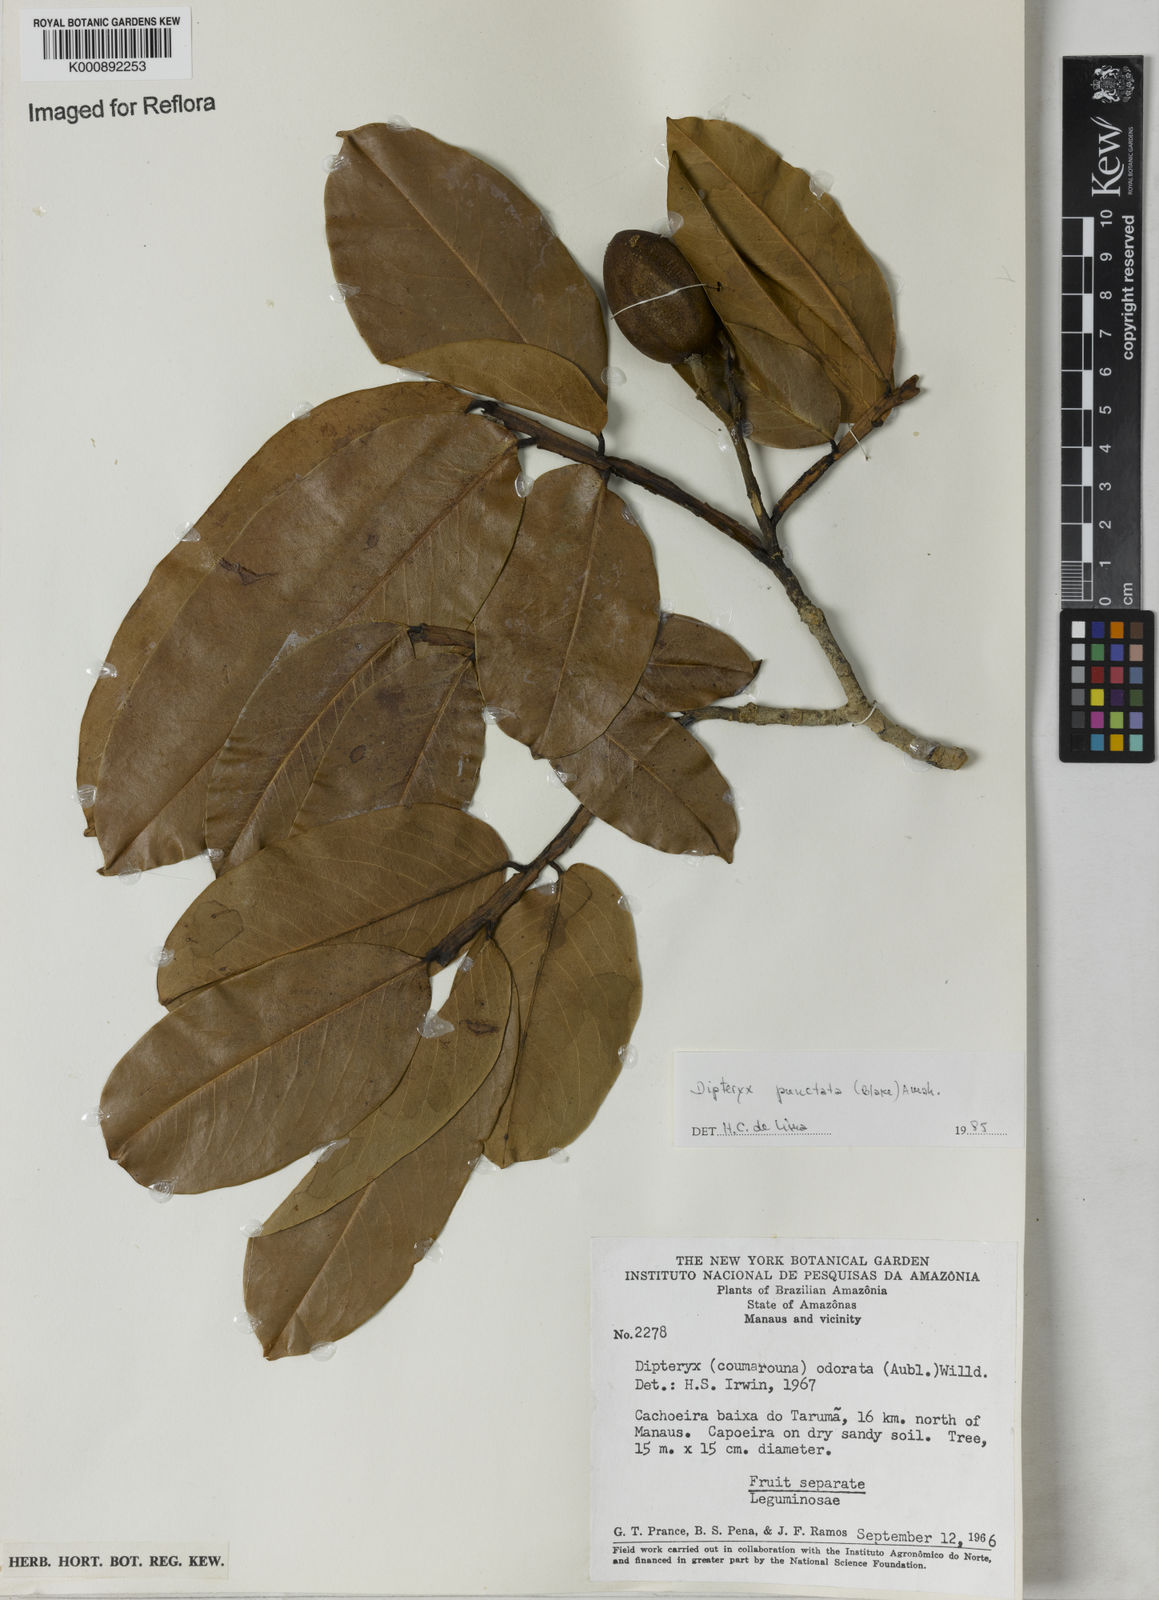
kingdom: Plantae
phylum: Tracheophyta
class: Magnoliopsida
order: Fabales
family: Fabaceae
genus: Dipteryx
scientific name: Dipteryx punctata
